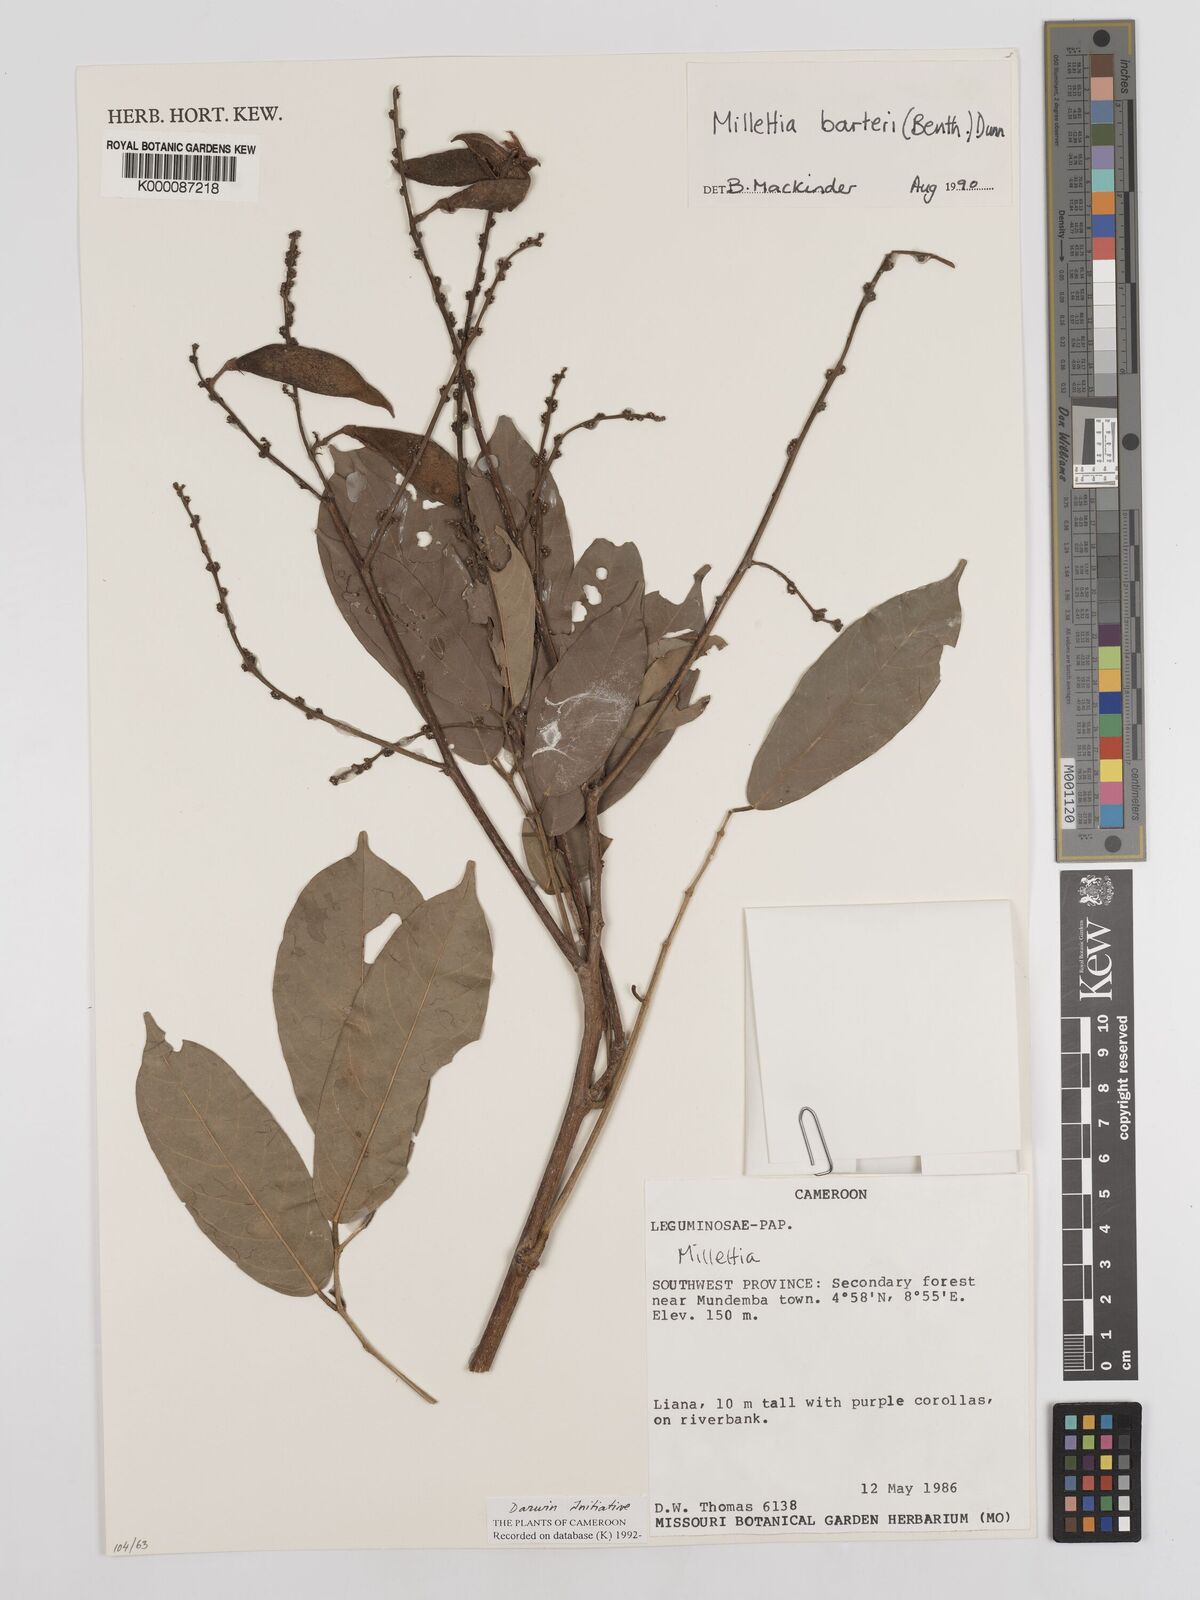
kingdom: Plantae
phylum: Tracheophyta
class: Magnoliopsida
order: Fabales
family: Fabaceae
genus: Millettia
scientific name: Millettia barteri
